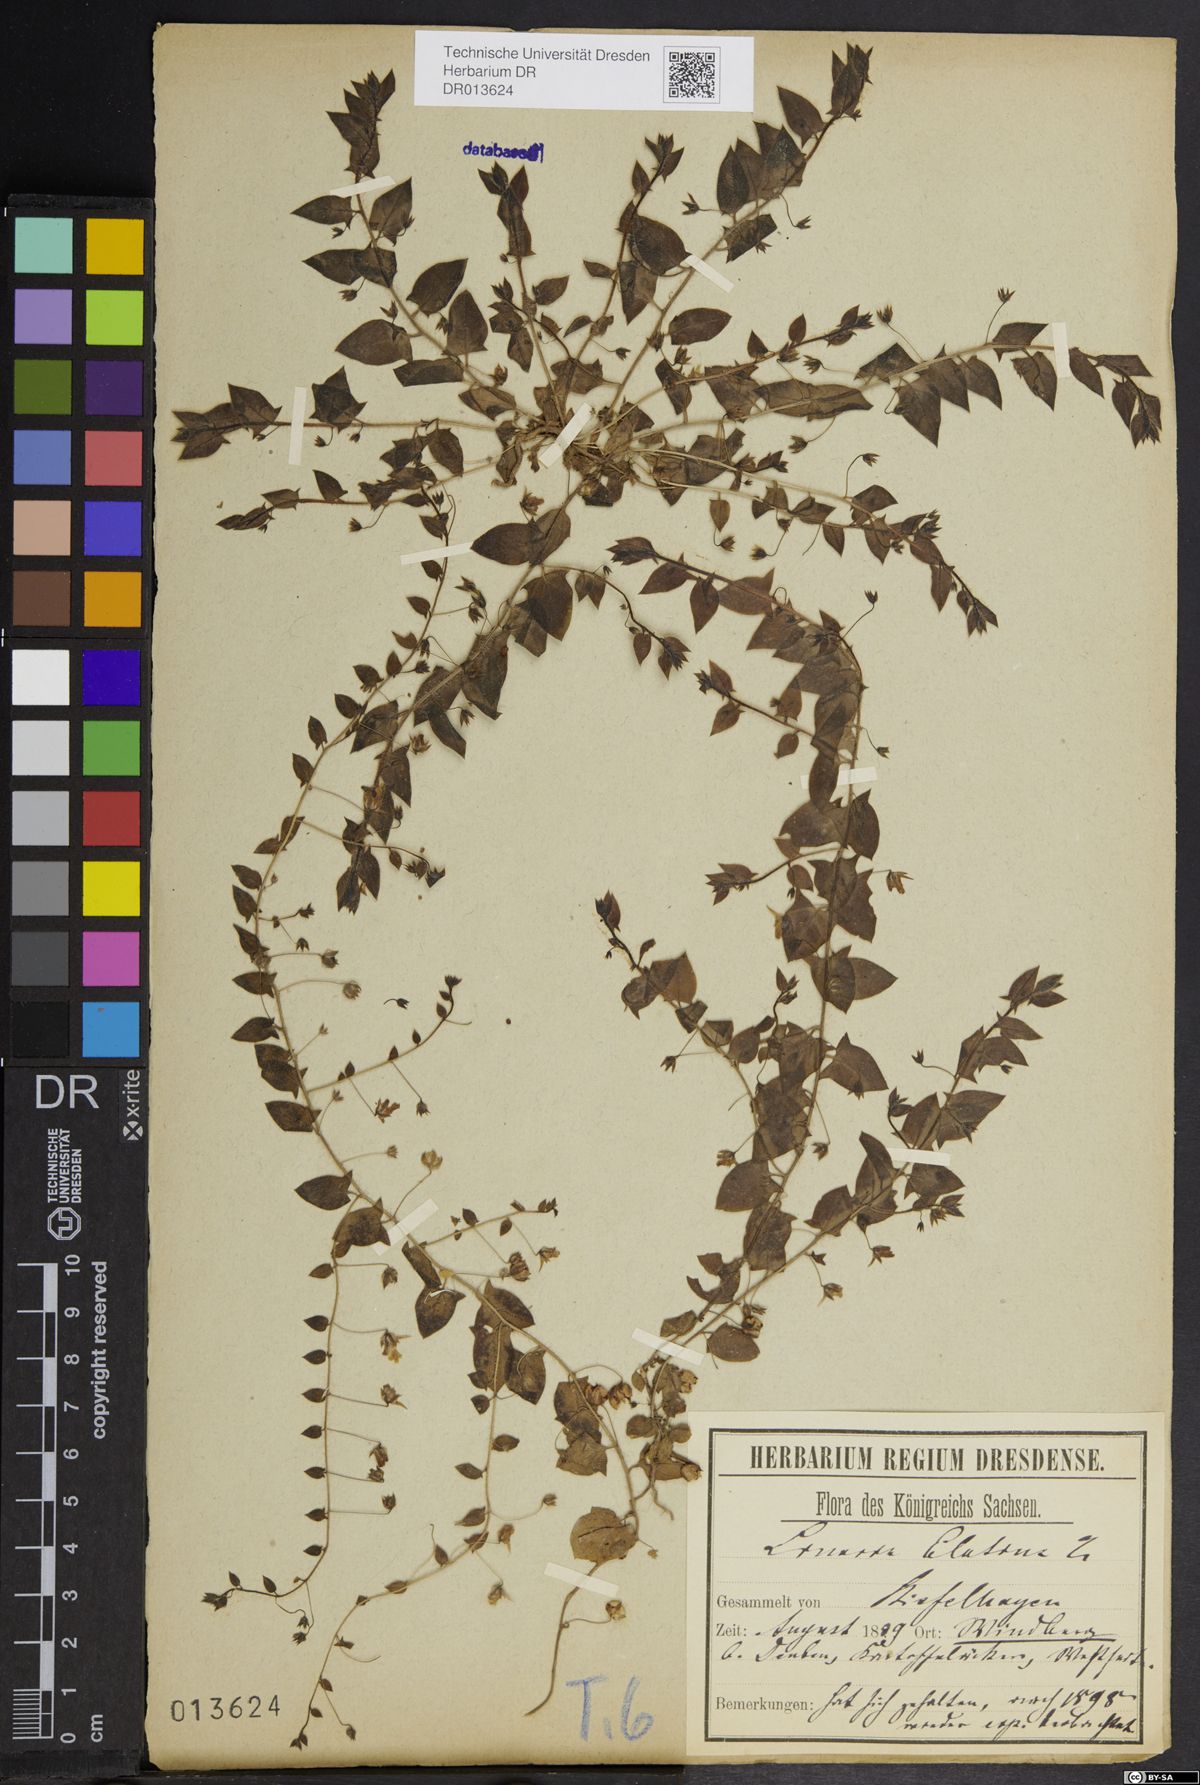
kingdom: Plantae
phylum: Tracheophyta
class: Magnoliopsida
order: Lamiales
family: Plantaginaceae
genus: Kickxia
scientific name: Kickxia elatine
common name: Sharp-leaved fluellen
